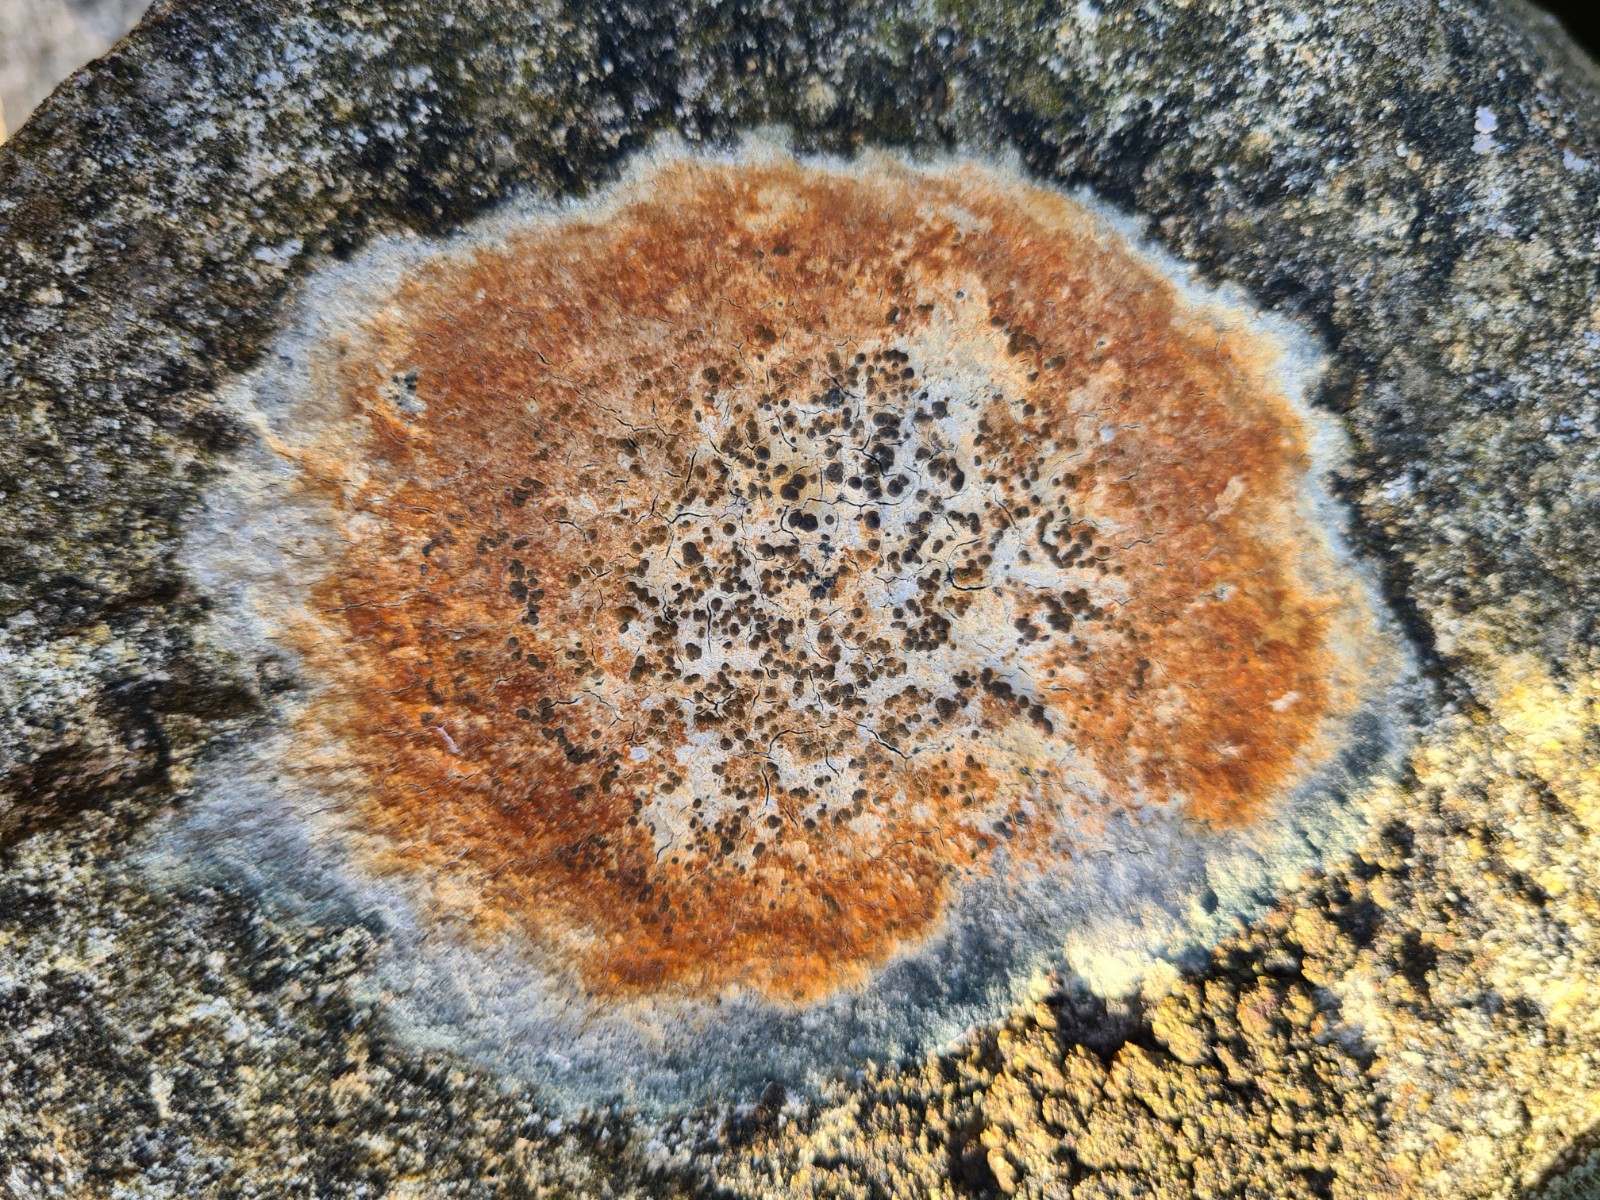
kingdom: Fungi
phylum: Ascomycota
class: Lecanoromycetes
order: Lecideales
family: Lecideaceae
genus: Lecidea
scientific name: Lecidea
